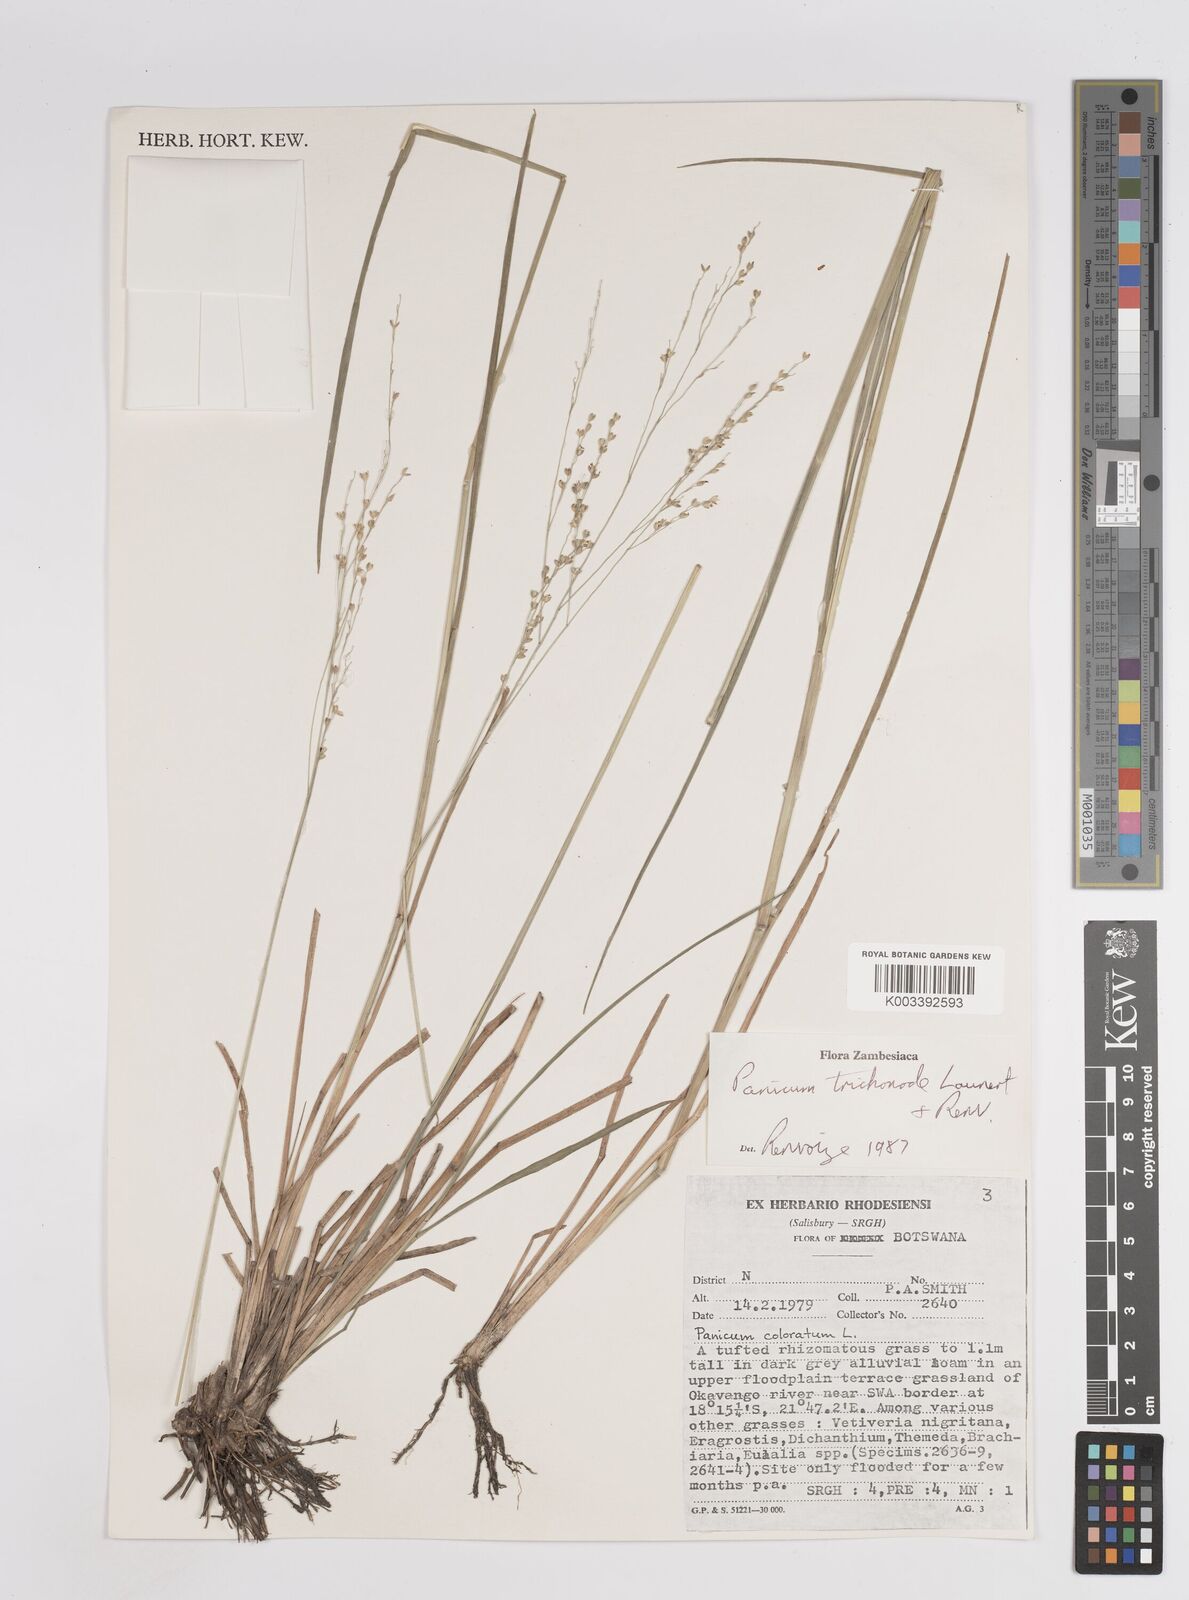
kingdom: Plantae
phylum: Tracheophyta
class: Liliopsida
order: Poales
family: Poaceae
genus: Panicum
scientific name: Panicum trichonode
